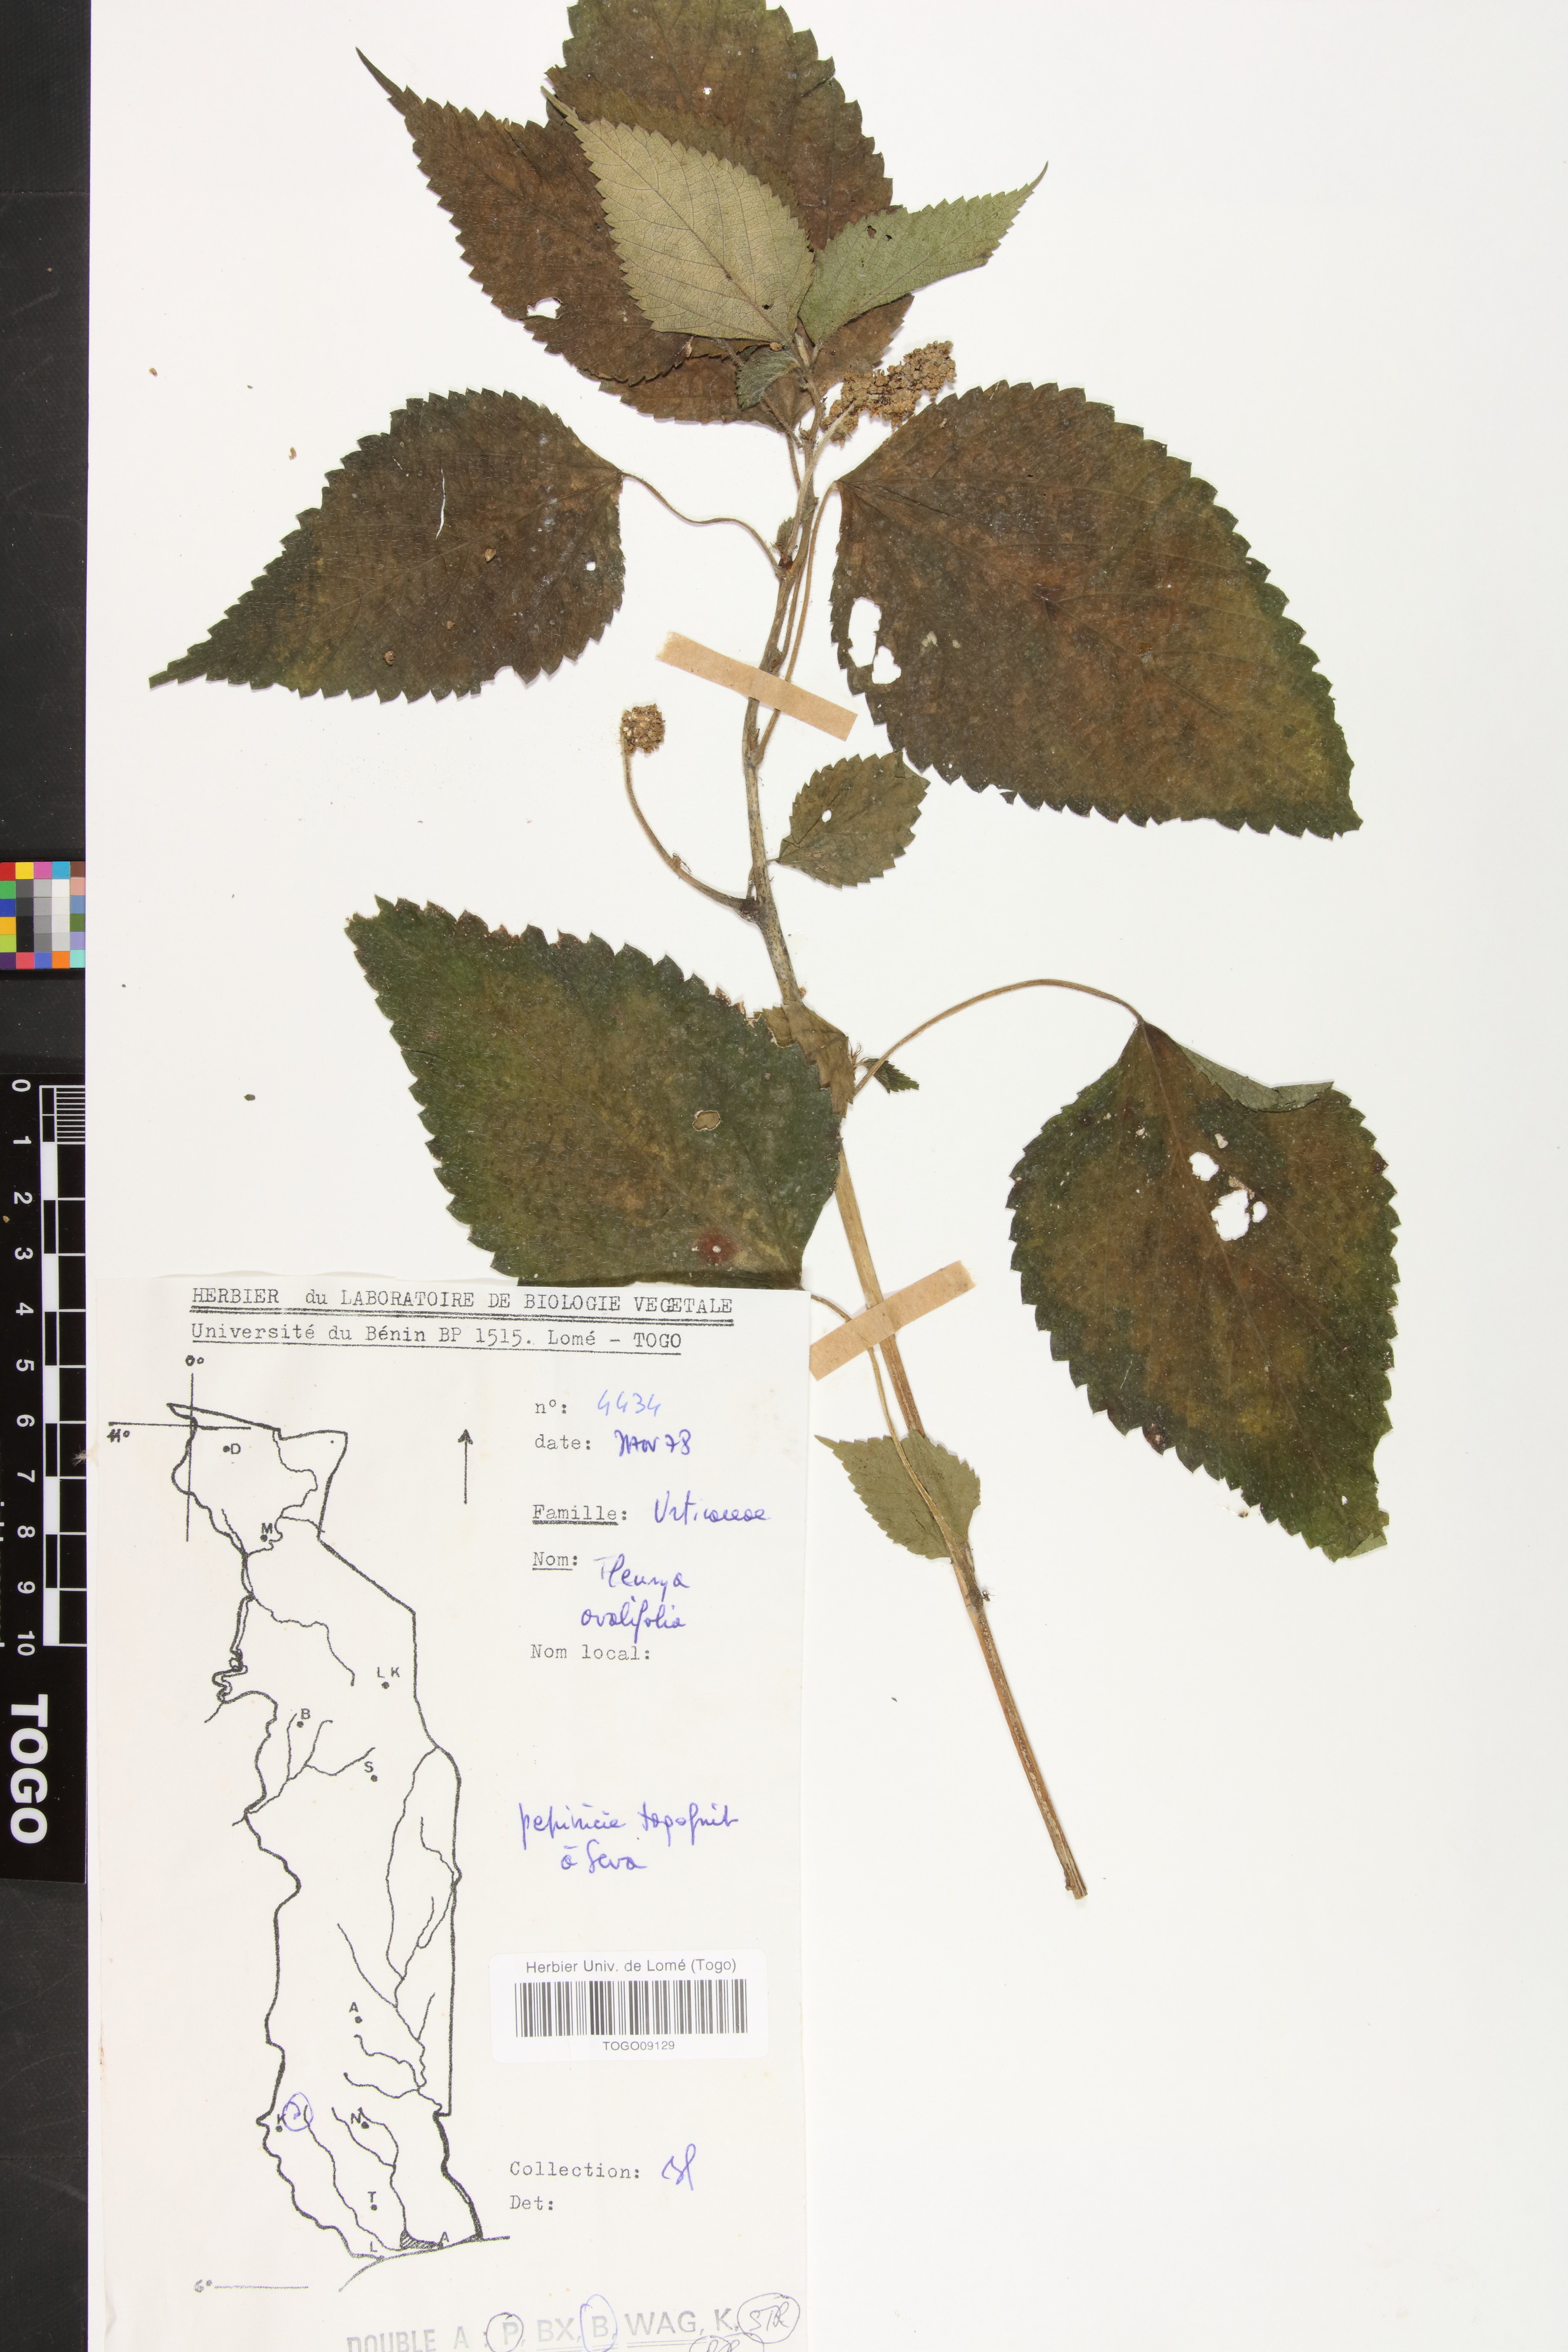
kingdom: Plantae
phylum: Tracheophyta
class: Magnoliopsida
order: Rosales
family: Urticaceae
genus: Laportea
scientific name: Laportea ovalifolia
